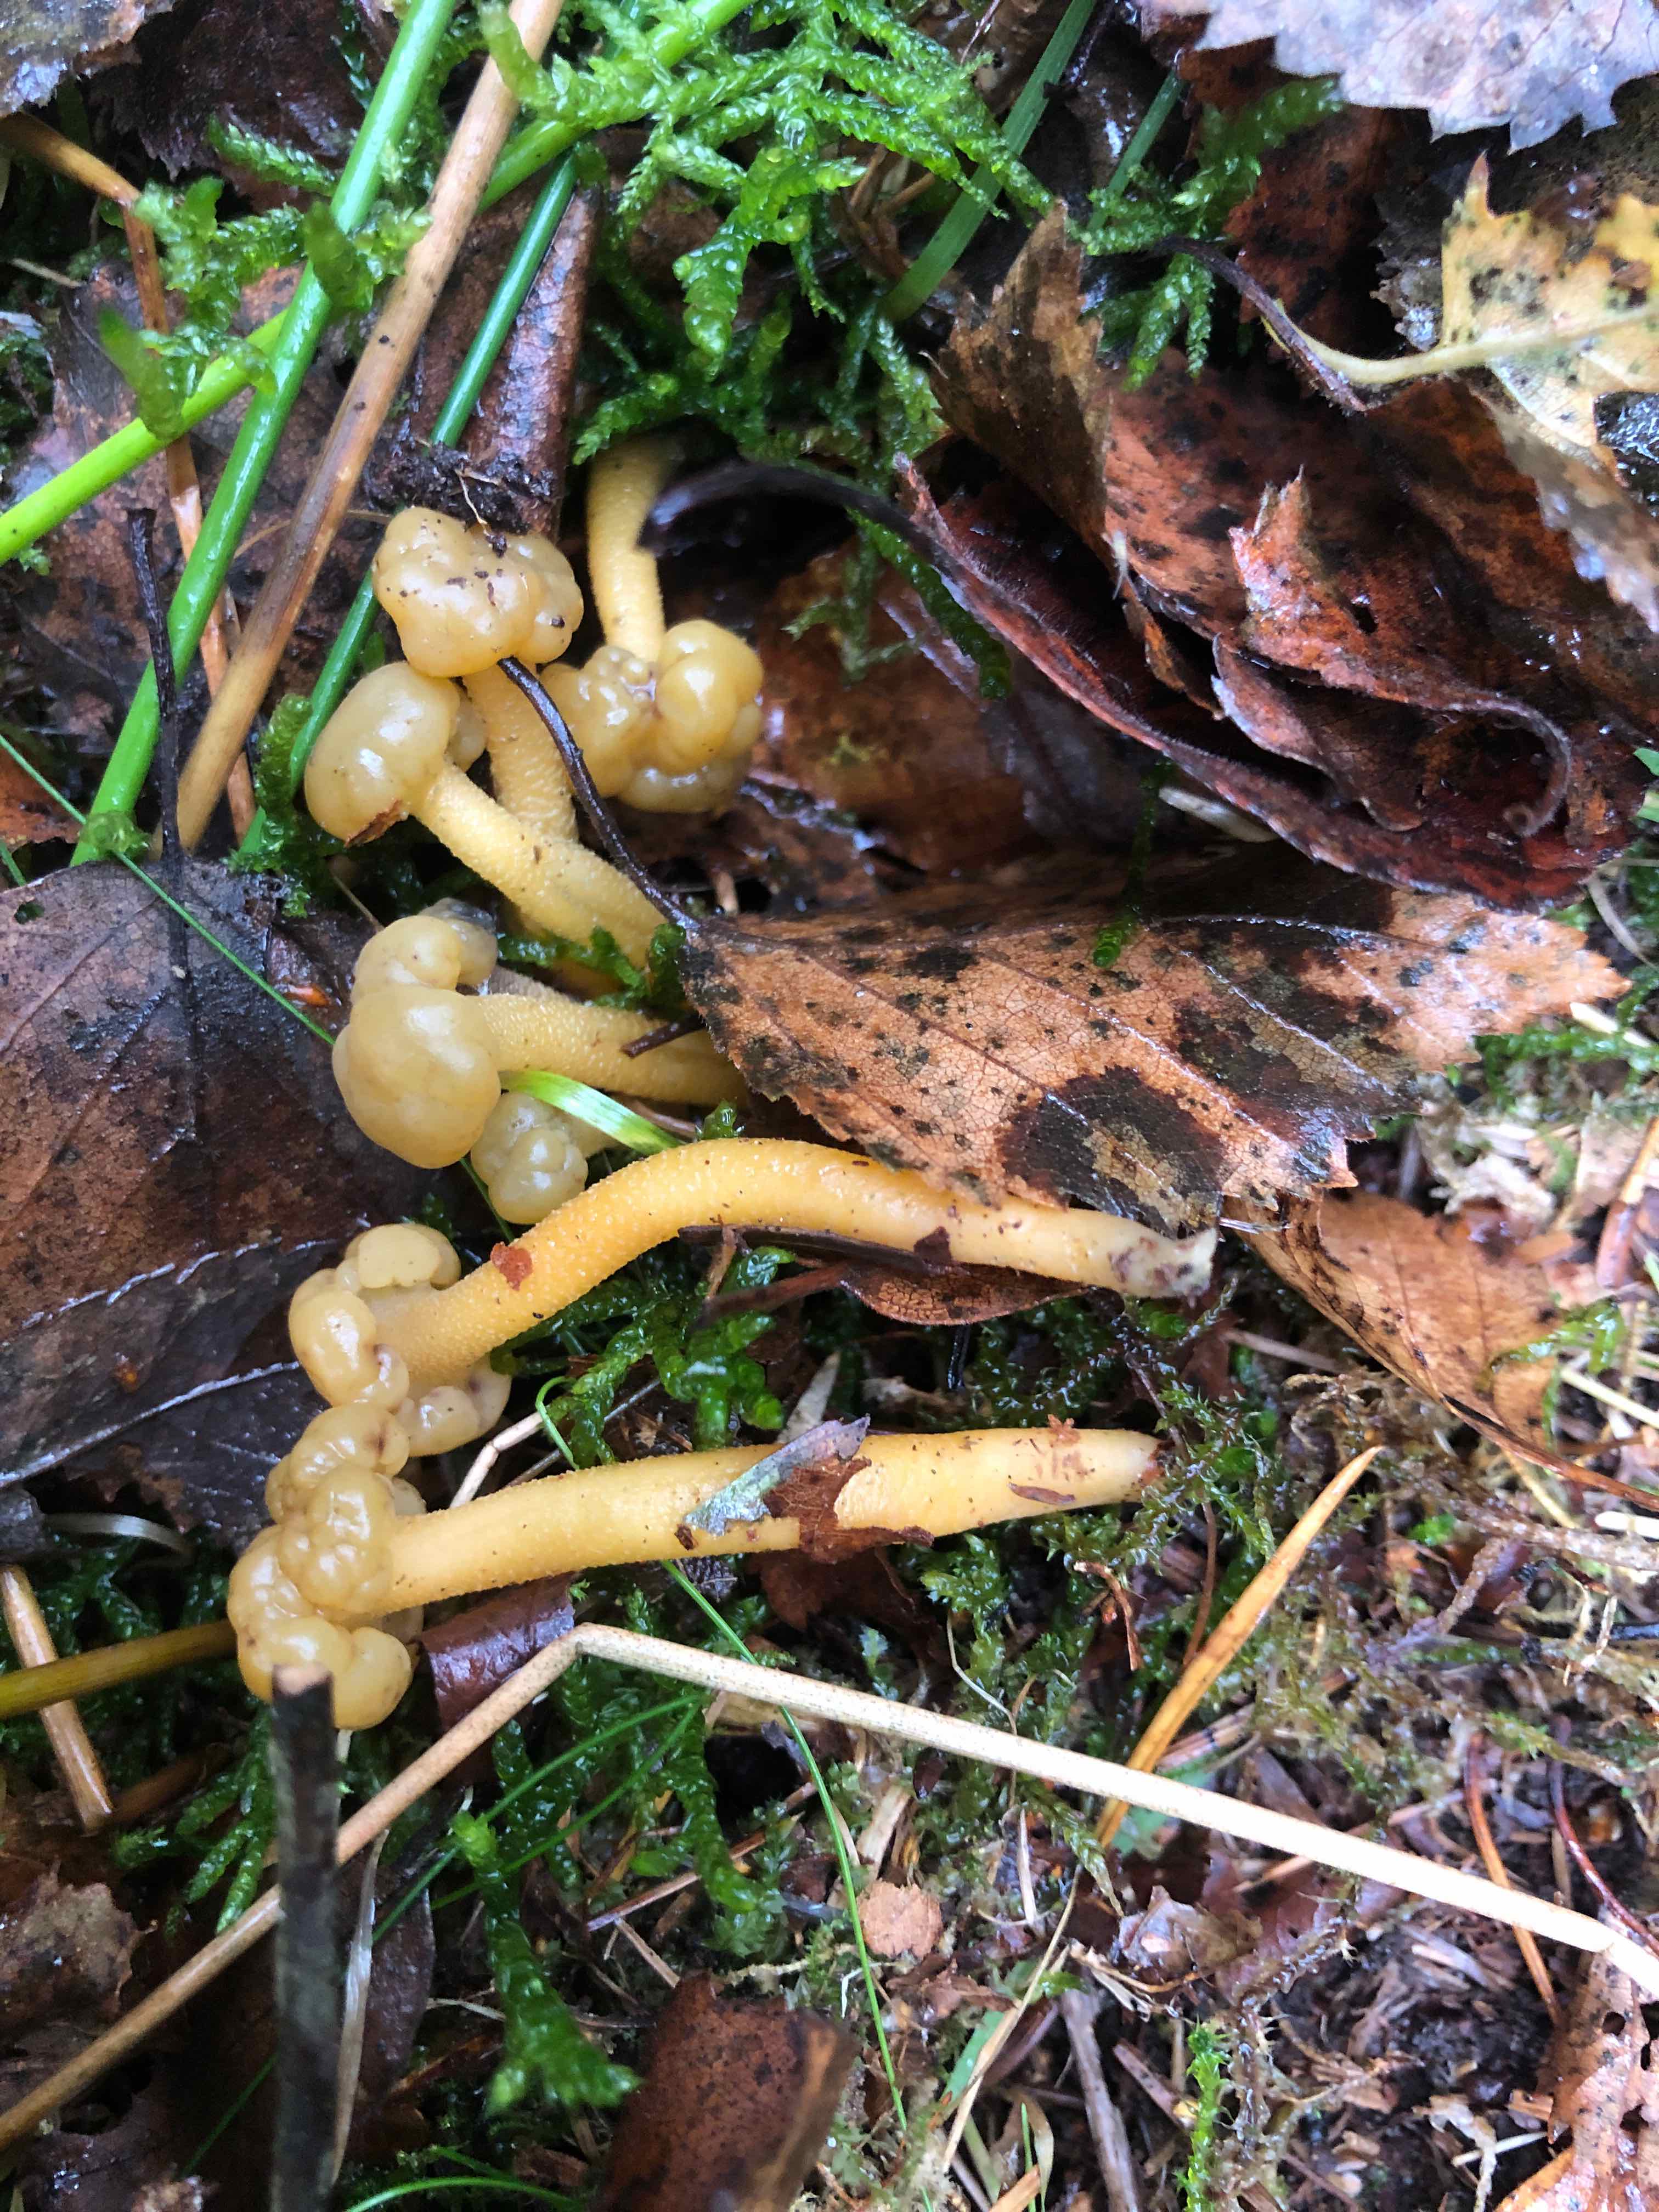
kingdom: Fungi
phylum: Ascomycota
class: Leotiomycetes
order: Leotiales
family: Leotiaceae
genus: Leotia
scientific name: Leotia lubrica
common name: ravsvamp
